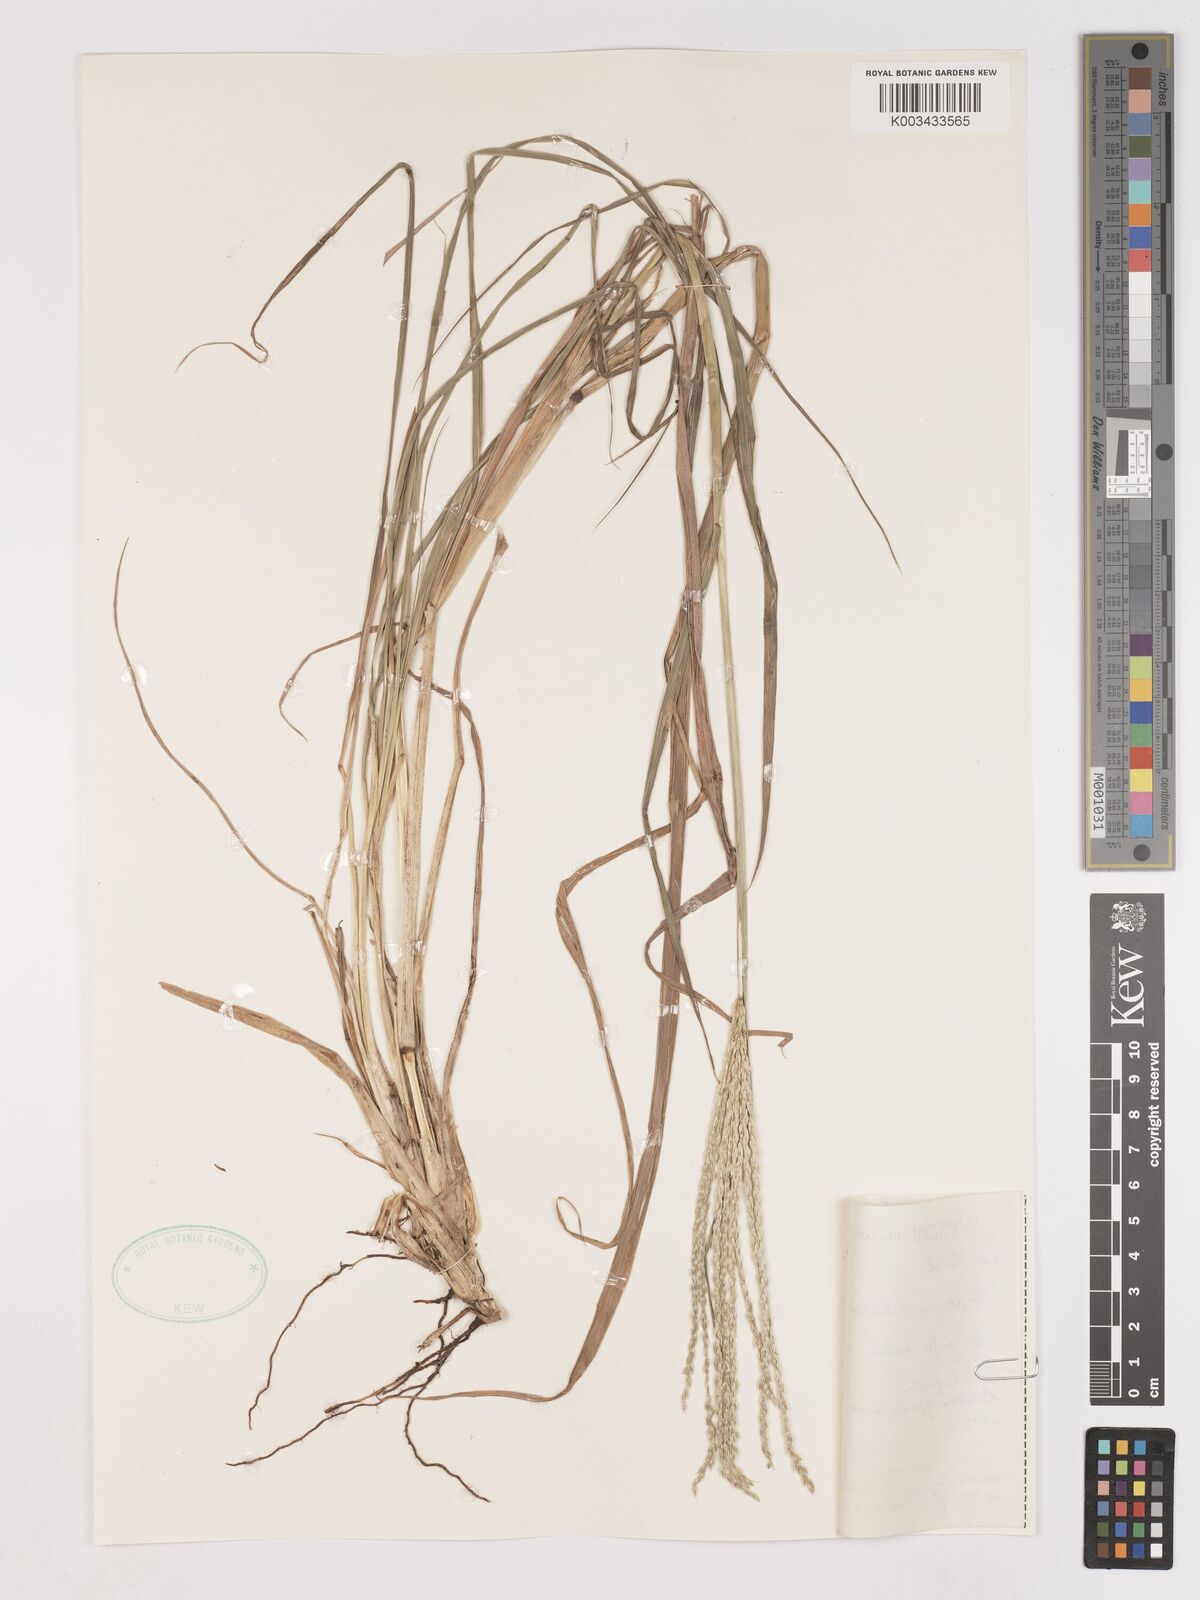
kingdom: Plantae
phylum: Tracheophyta
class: Liliopsida
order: Poales
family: Poaceae
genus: Digitaria
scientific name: Digitaria eriantha
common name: Digitgrass
